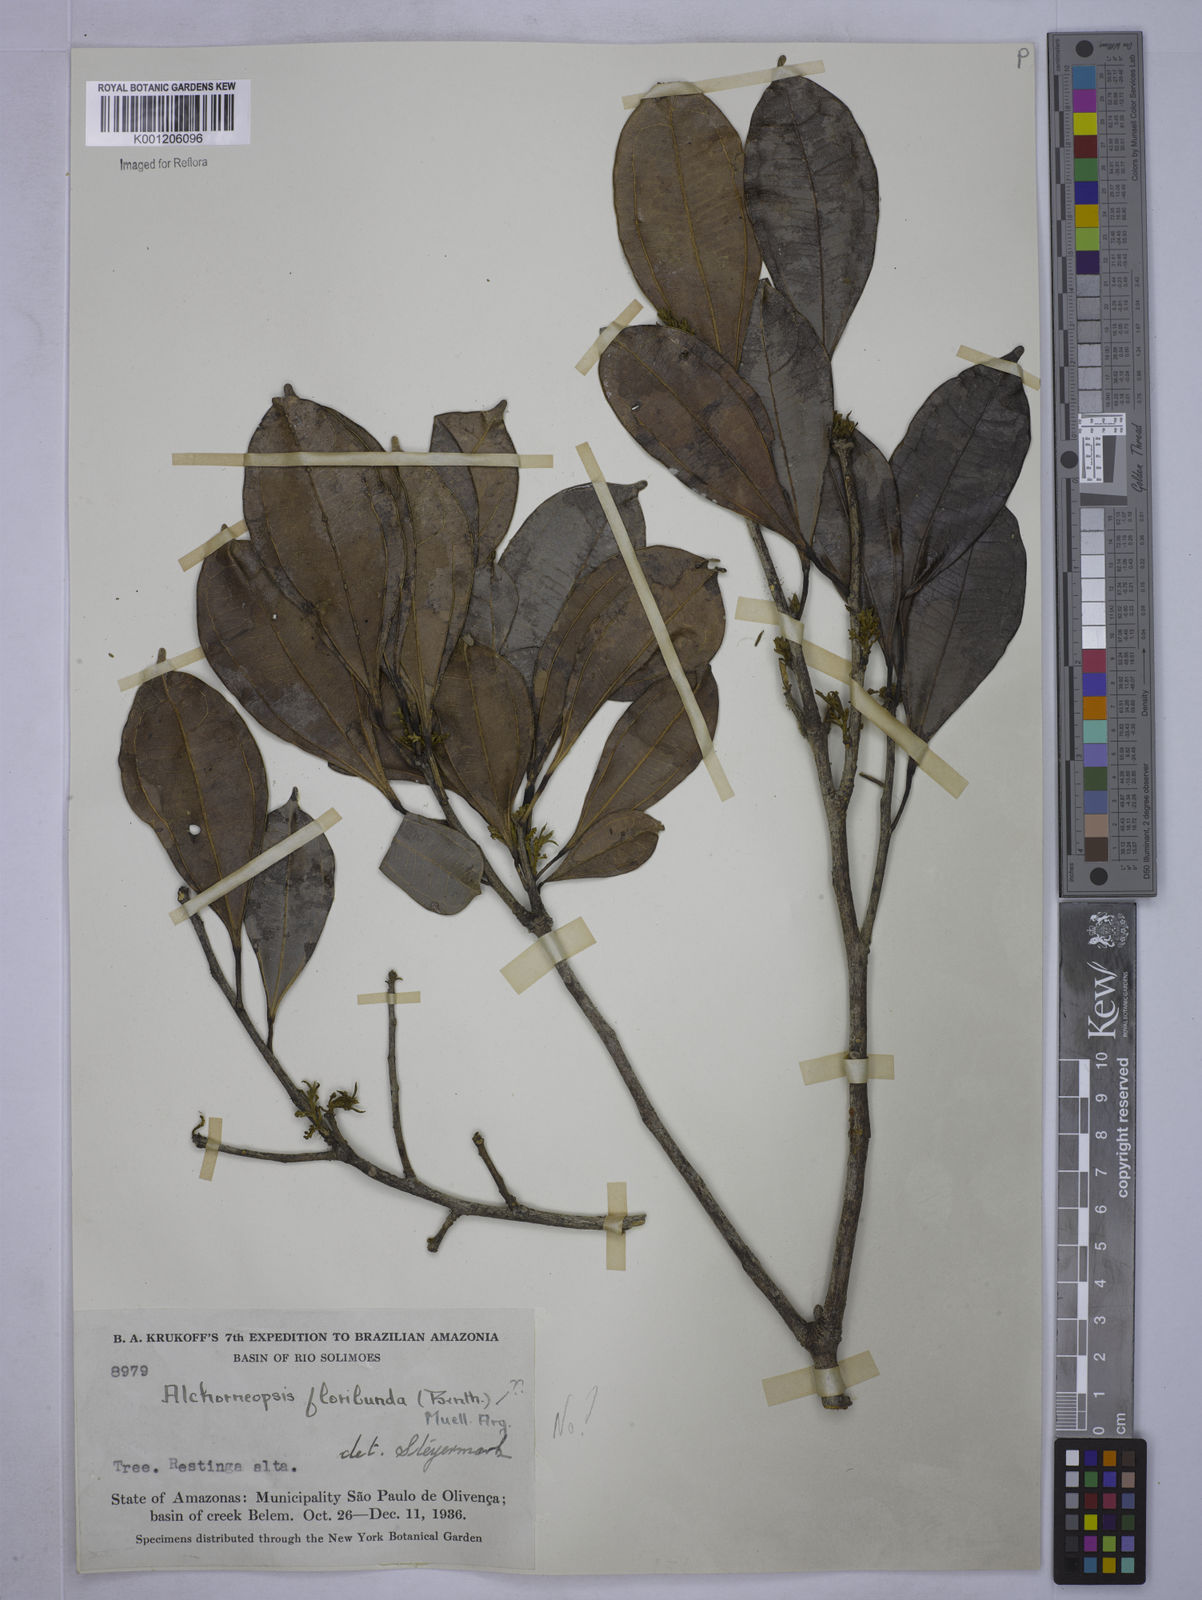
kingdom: Plantae
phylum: Tracheophyta
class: Magnoliopsida
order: Malpighiales
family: Euphorbiaceae
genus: Alchorneopsis
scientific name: Alchorneopsis
